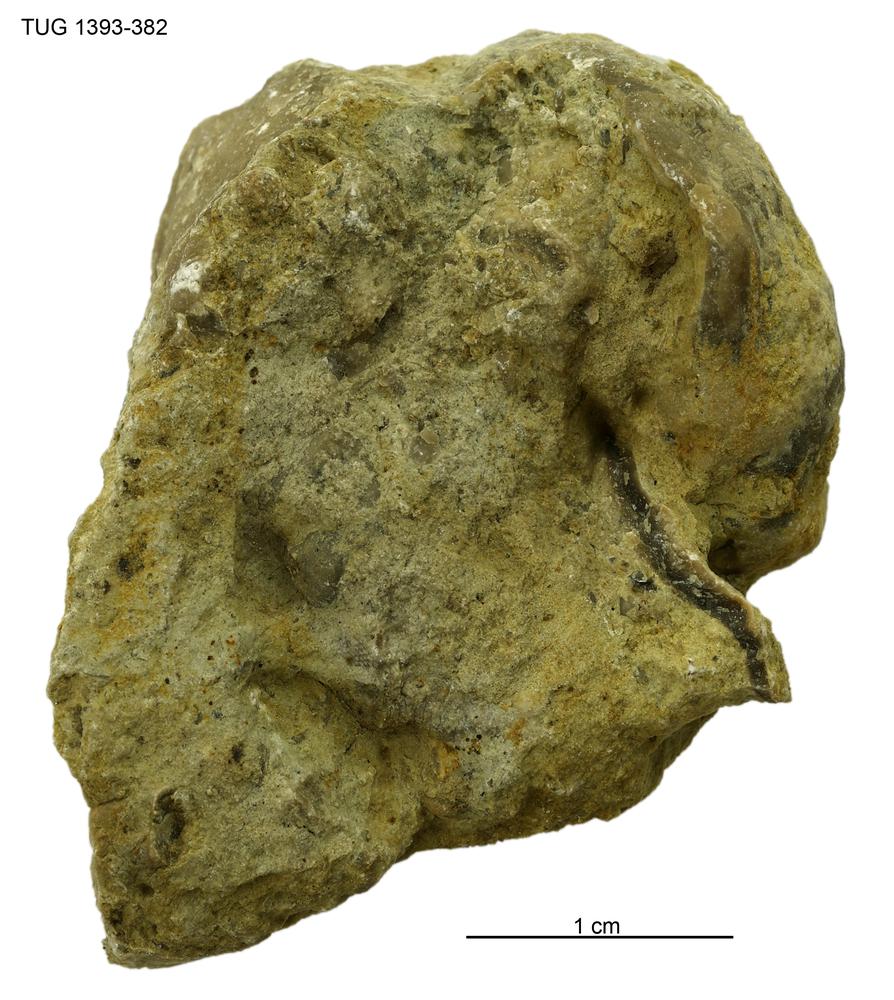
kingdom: Animalia
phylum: Bryozoa
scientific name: Bryozoa
